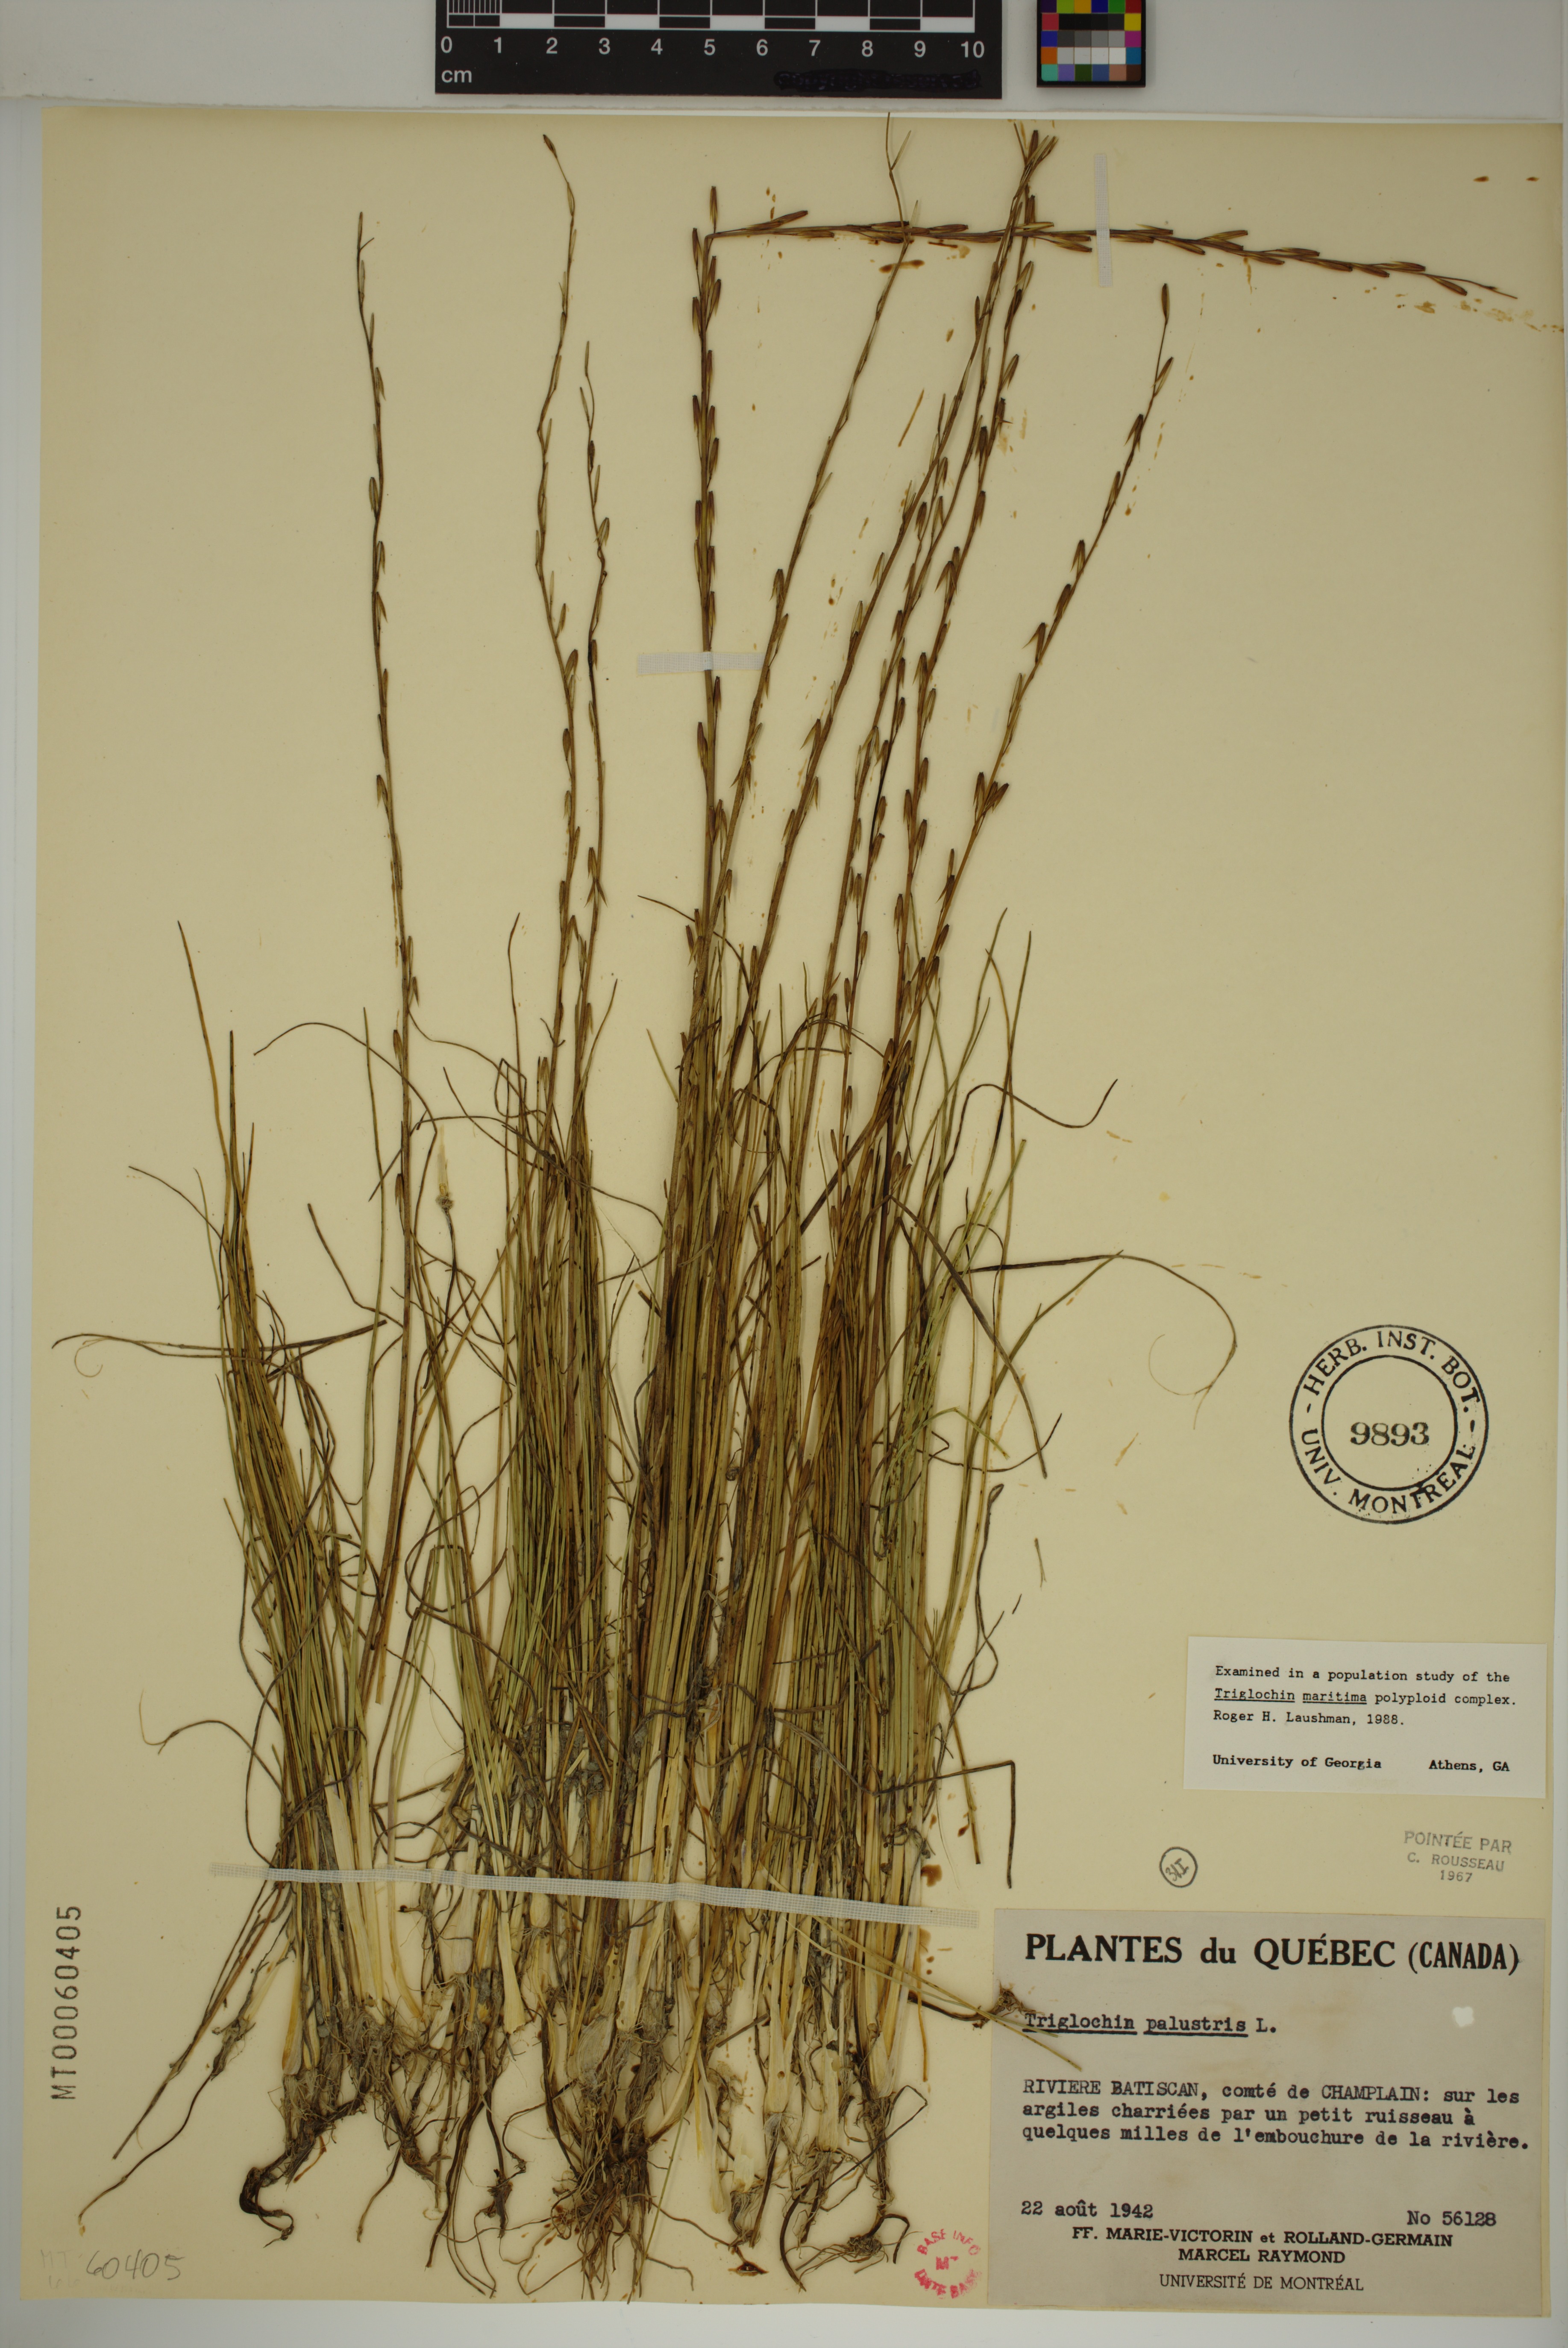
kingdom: Plantae
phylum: Tracheophyta
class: Liliopsida
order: Alismatales
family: Juncaginaceae
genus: Triglochin
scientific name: Triglochin palustris
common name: Marsh arrowgrass
